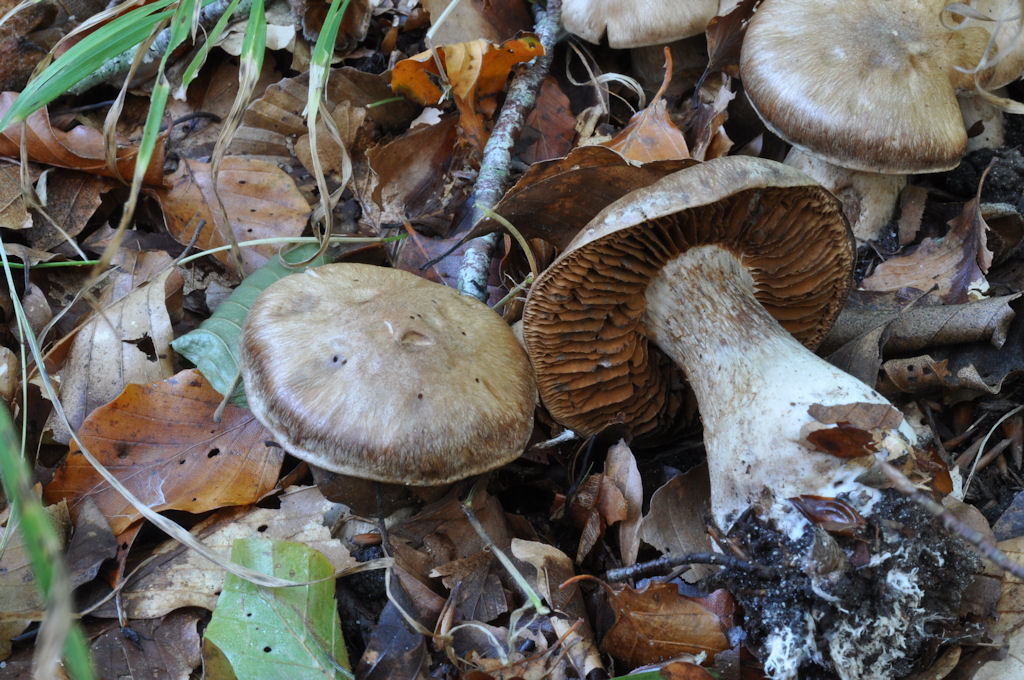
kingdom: Fungi
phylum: Basidiomycota
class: Agaricomycetes
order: Agaricales
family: Cortinariaceae
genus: Cortinarius
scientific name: Cortinarius
